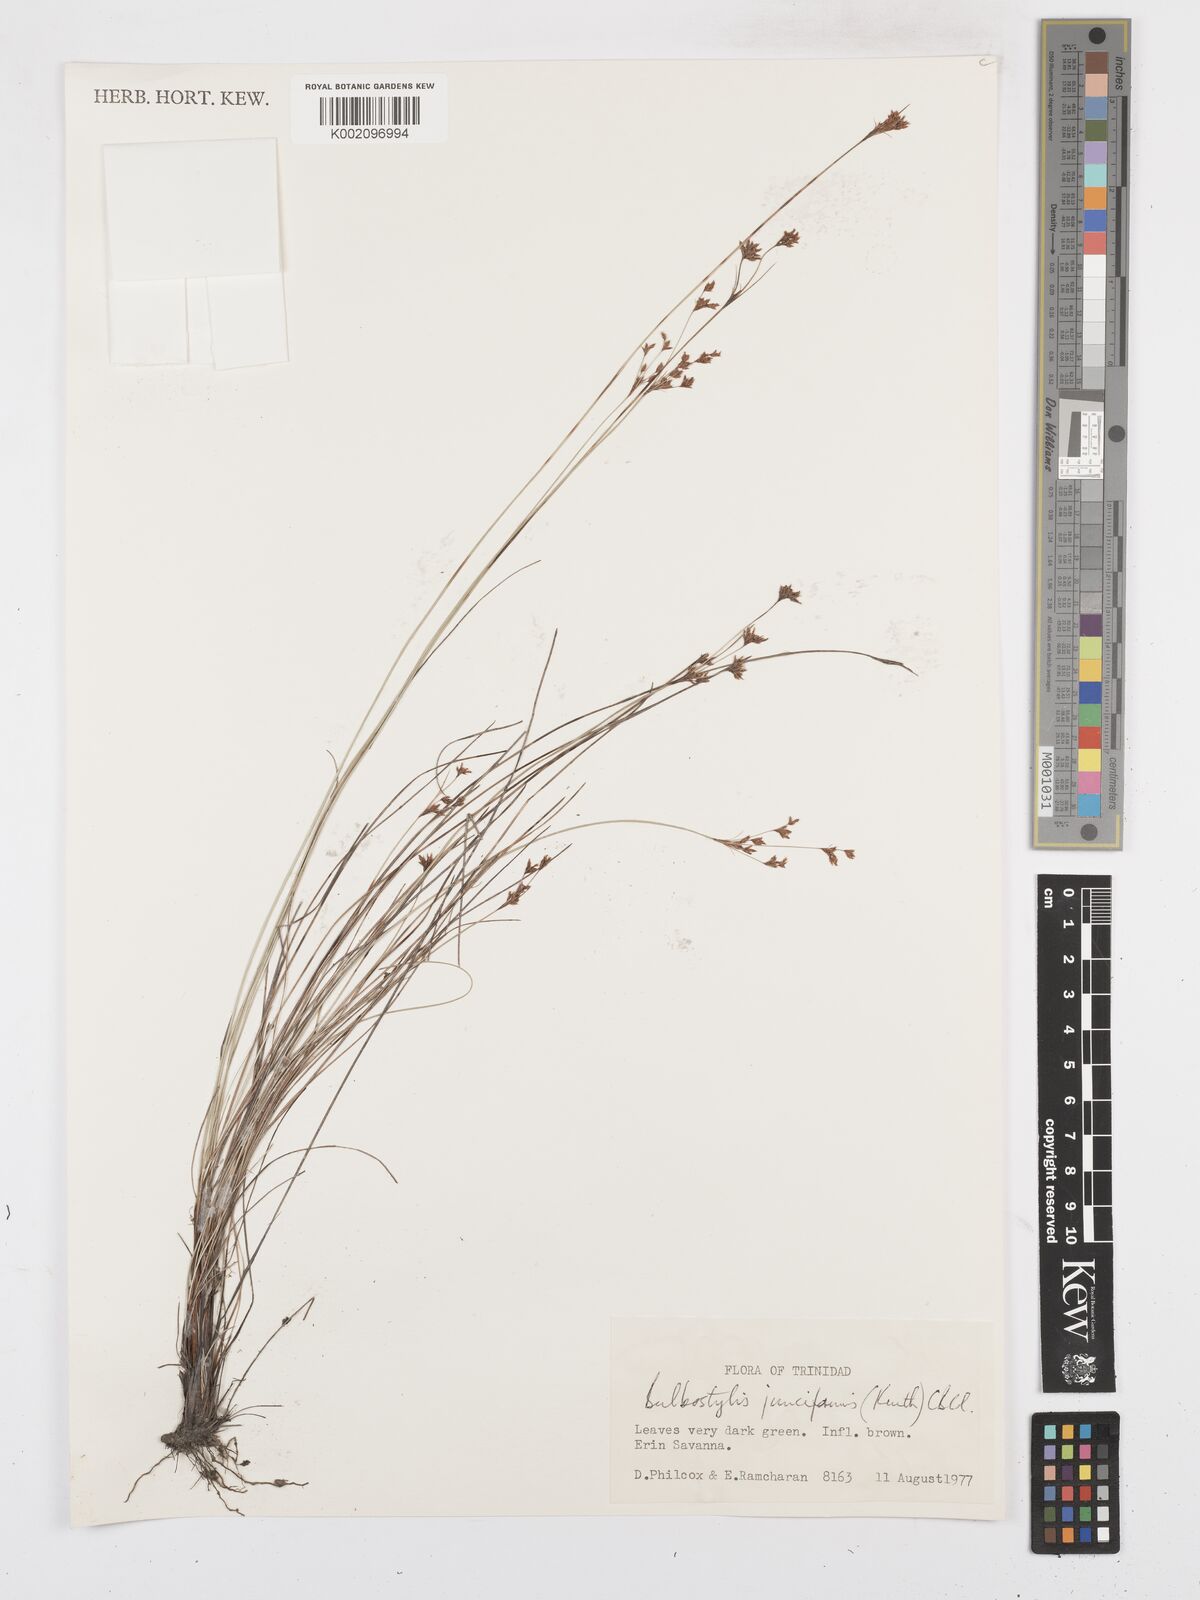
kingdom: Plantae
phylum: Tracheophyta
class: Liliopsida
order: Poales
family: Cyperaceae
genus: Bulbostylis
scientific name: Bulbostylis junciformis
